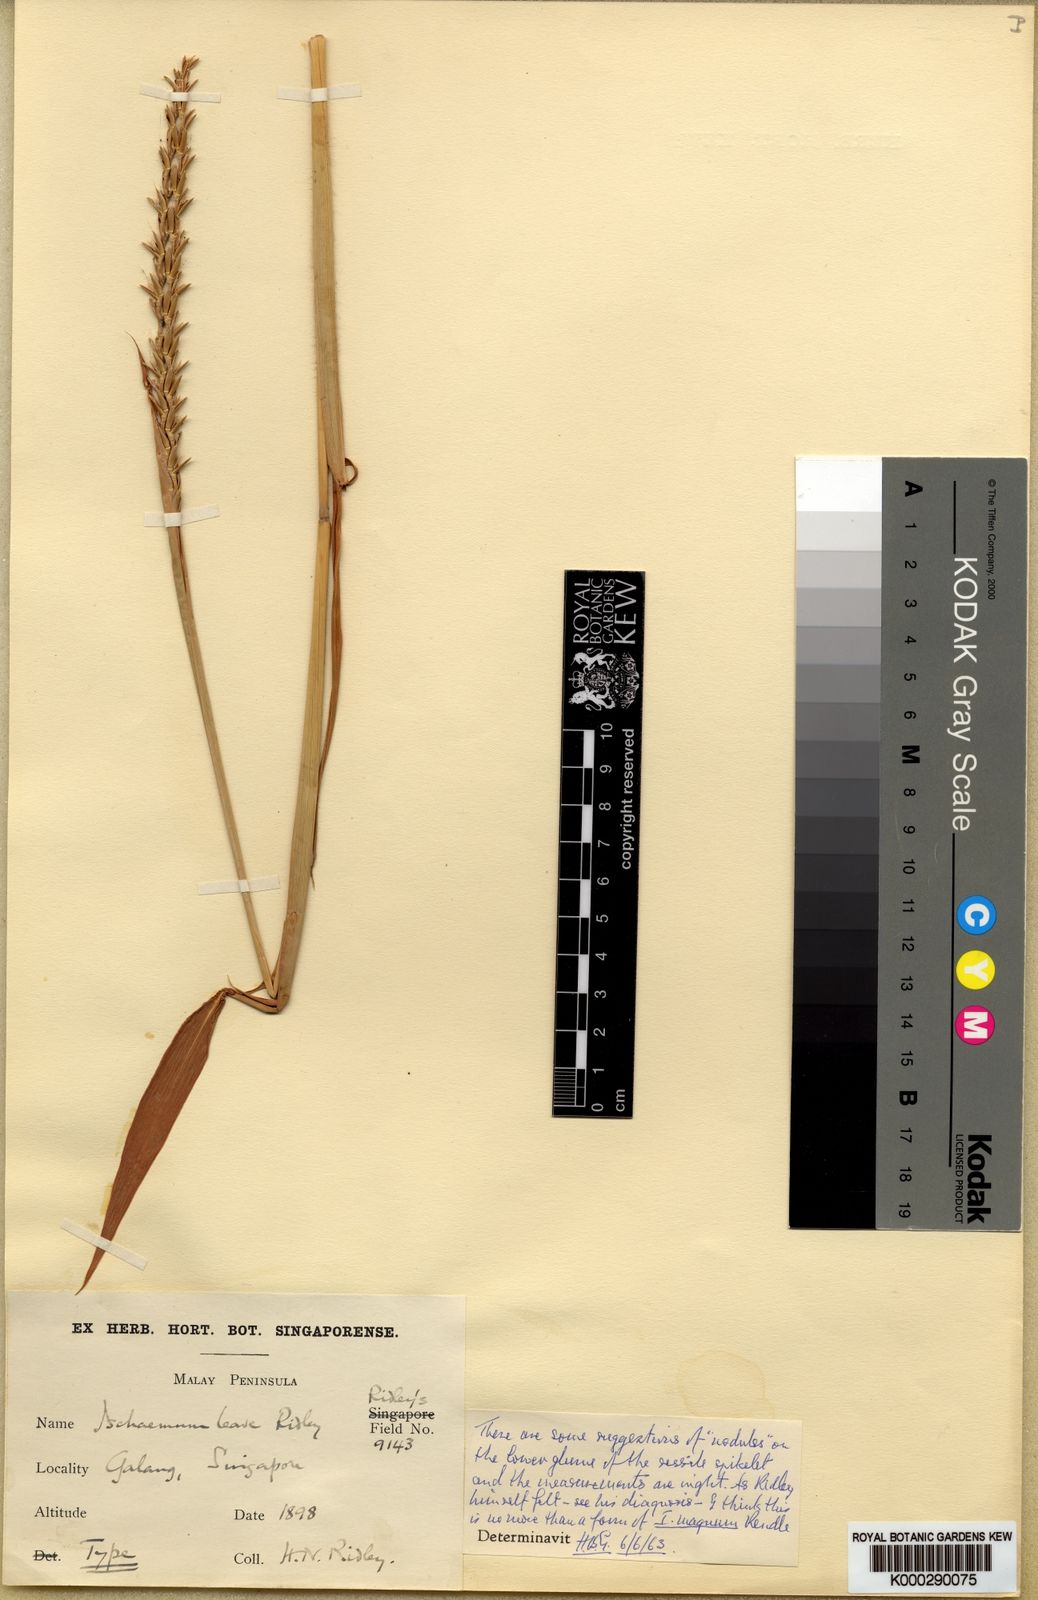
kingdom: Plantae
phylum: Tracheophyta
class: Liliopsida
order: Poales
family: Poaceae
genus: Ischaemum
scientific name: Ischaemum barbatum
